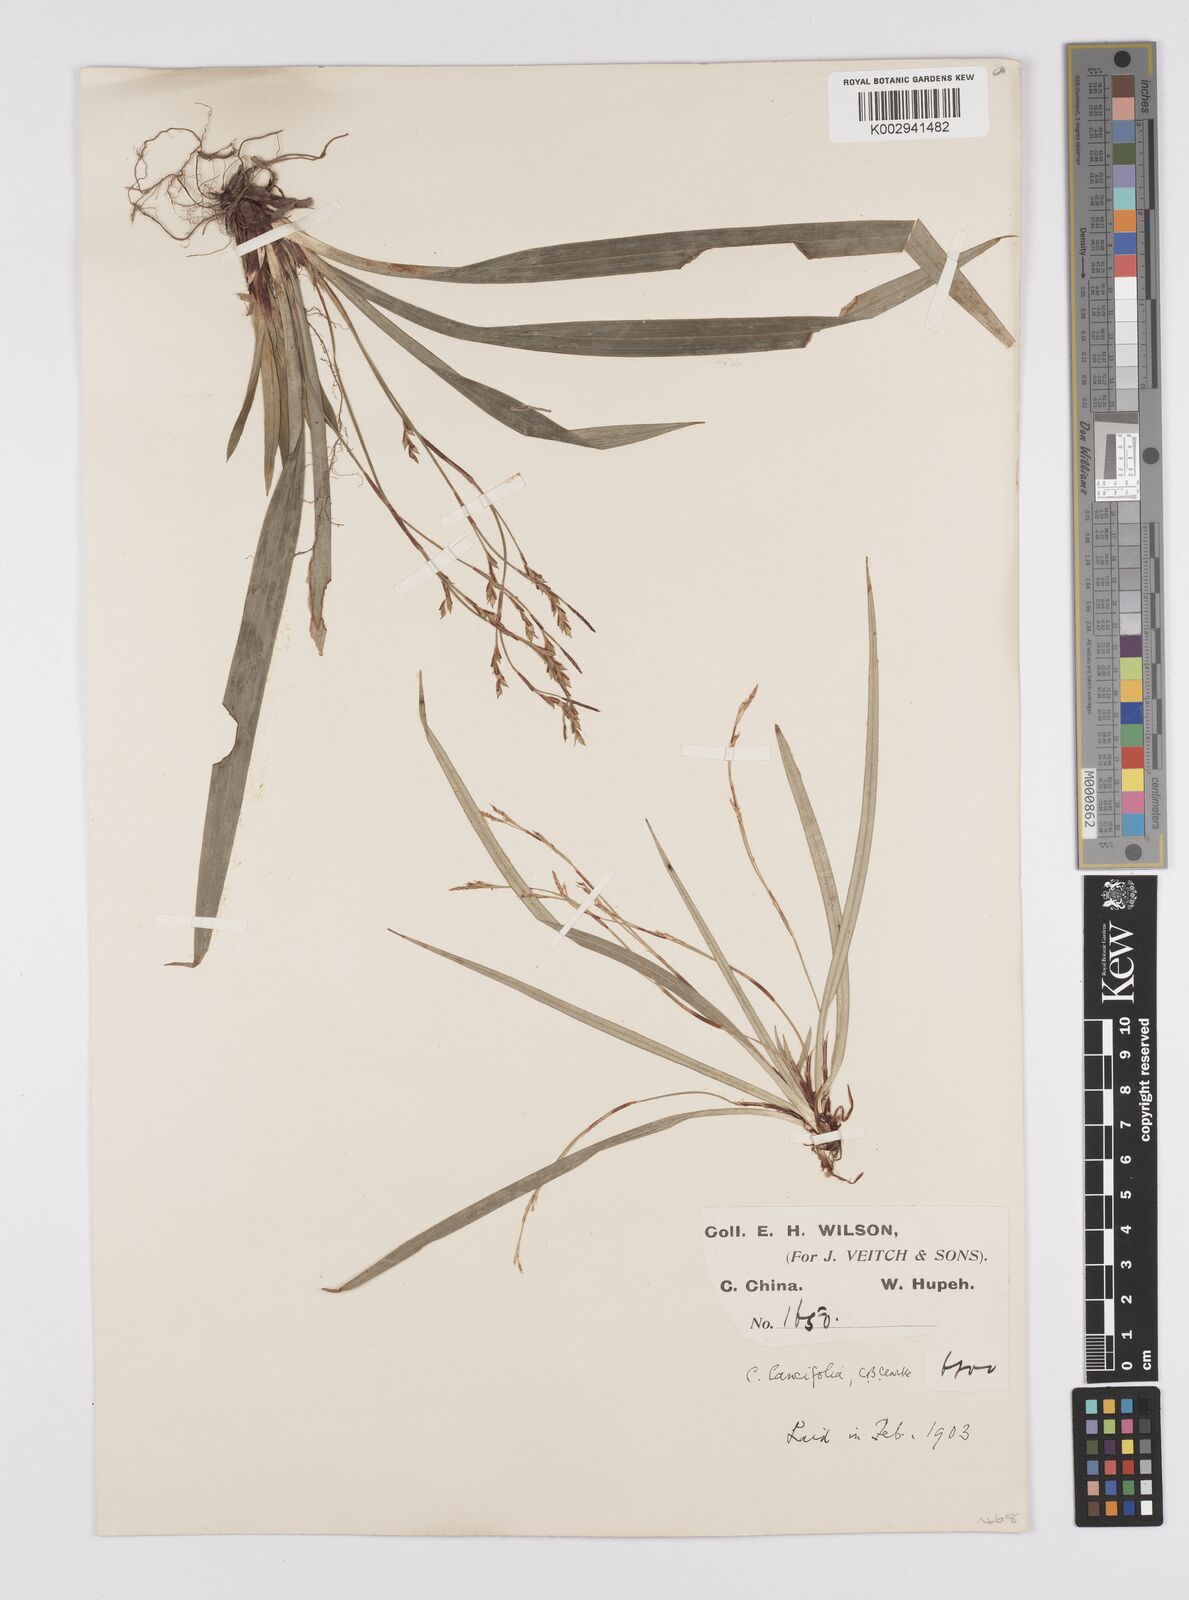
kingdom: Plantae
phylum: Tracheophyta
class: Liliopsida
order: Poales
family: Cyperaceae
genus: Carex
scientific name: Carex lancifolia
